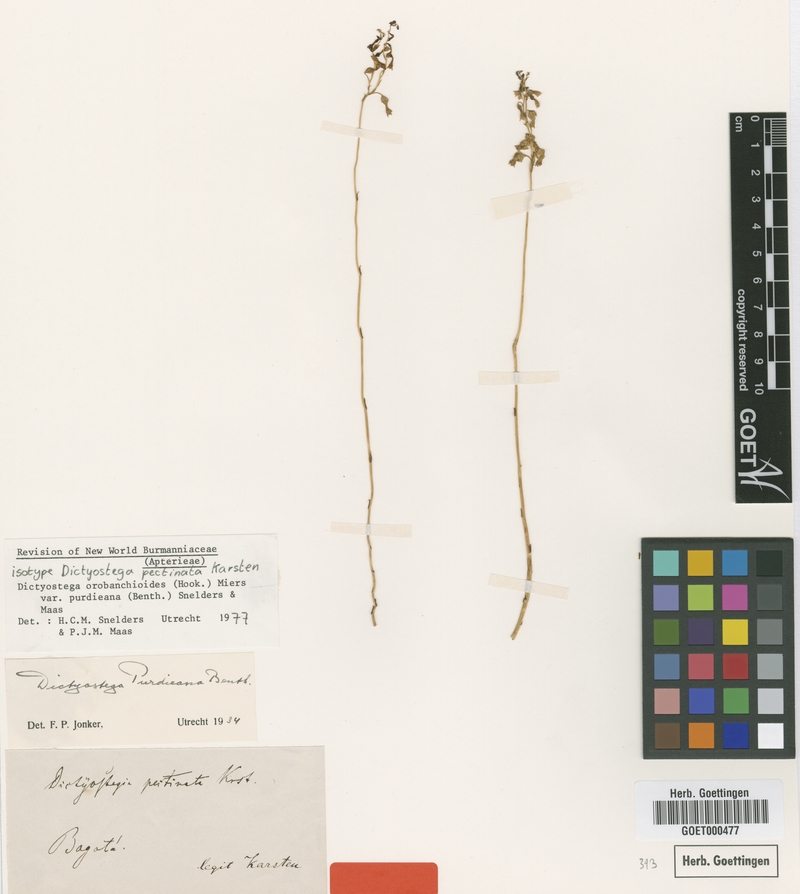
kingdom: Plantae
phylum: Tracheophyta
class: Liliopsida
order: Dioscoreales
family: Burmanniaceae
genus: Dictyostega
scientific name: Dictyostega orobanchoides
